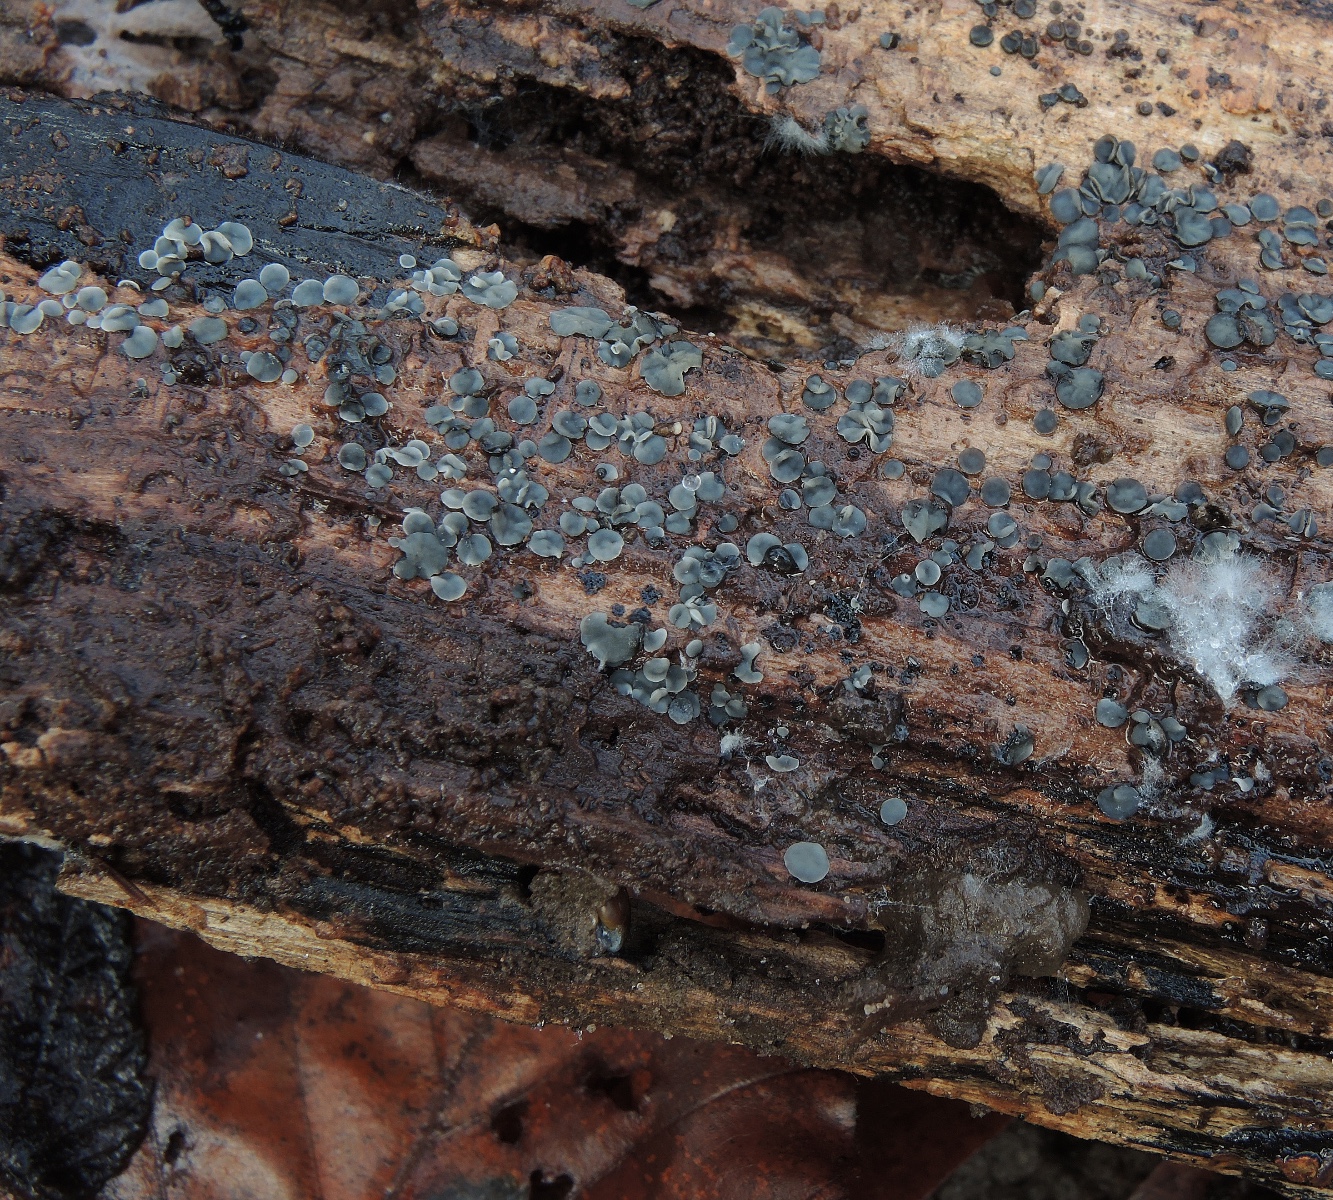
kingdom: Fungi
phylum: Ascomycota
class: Leotiomycetes
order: Helotiales
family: Mollisiaceae
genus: Mollisia
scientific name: Mollisia cinerea
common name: almindelig gråskive
